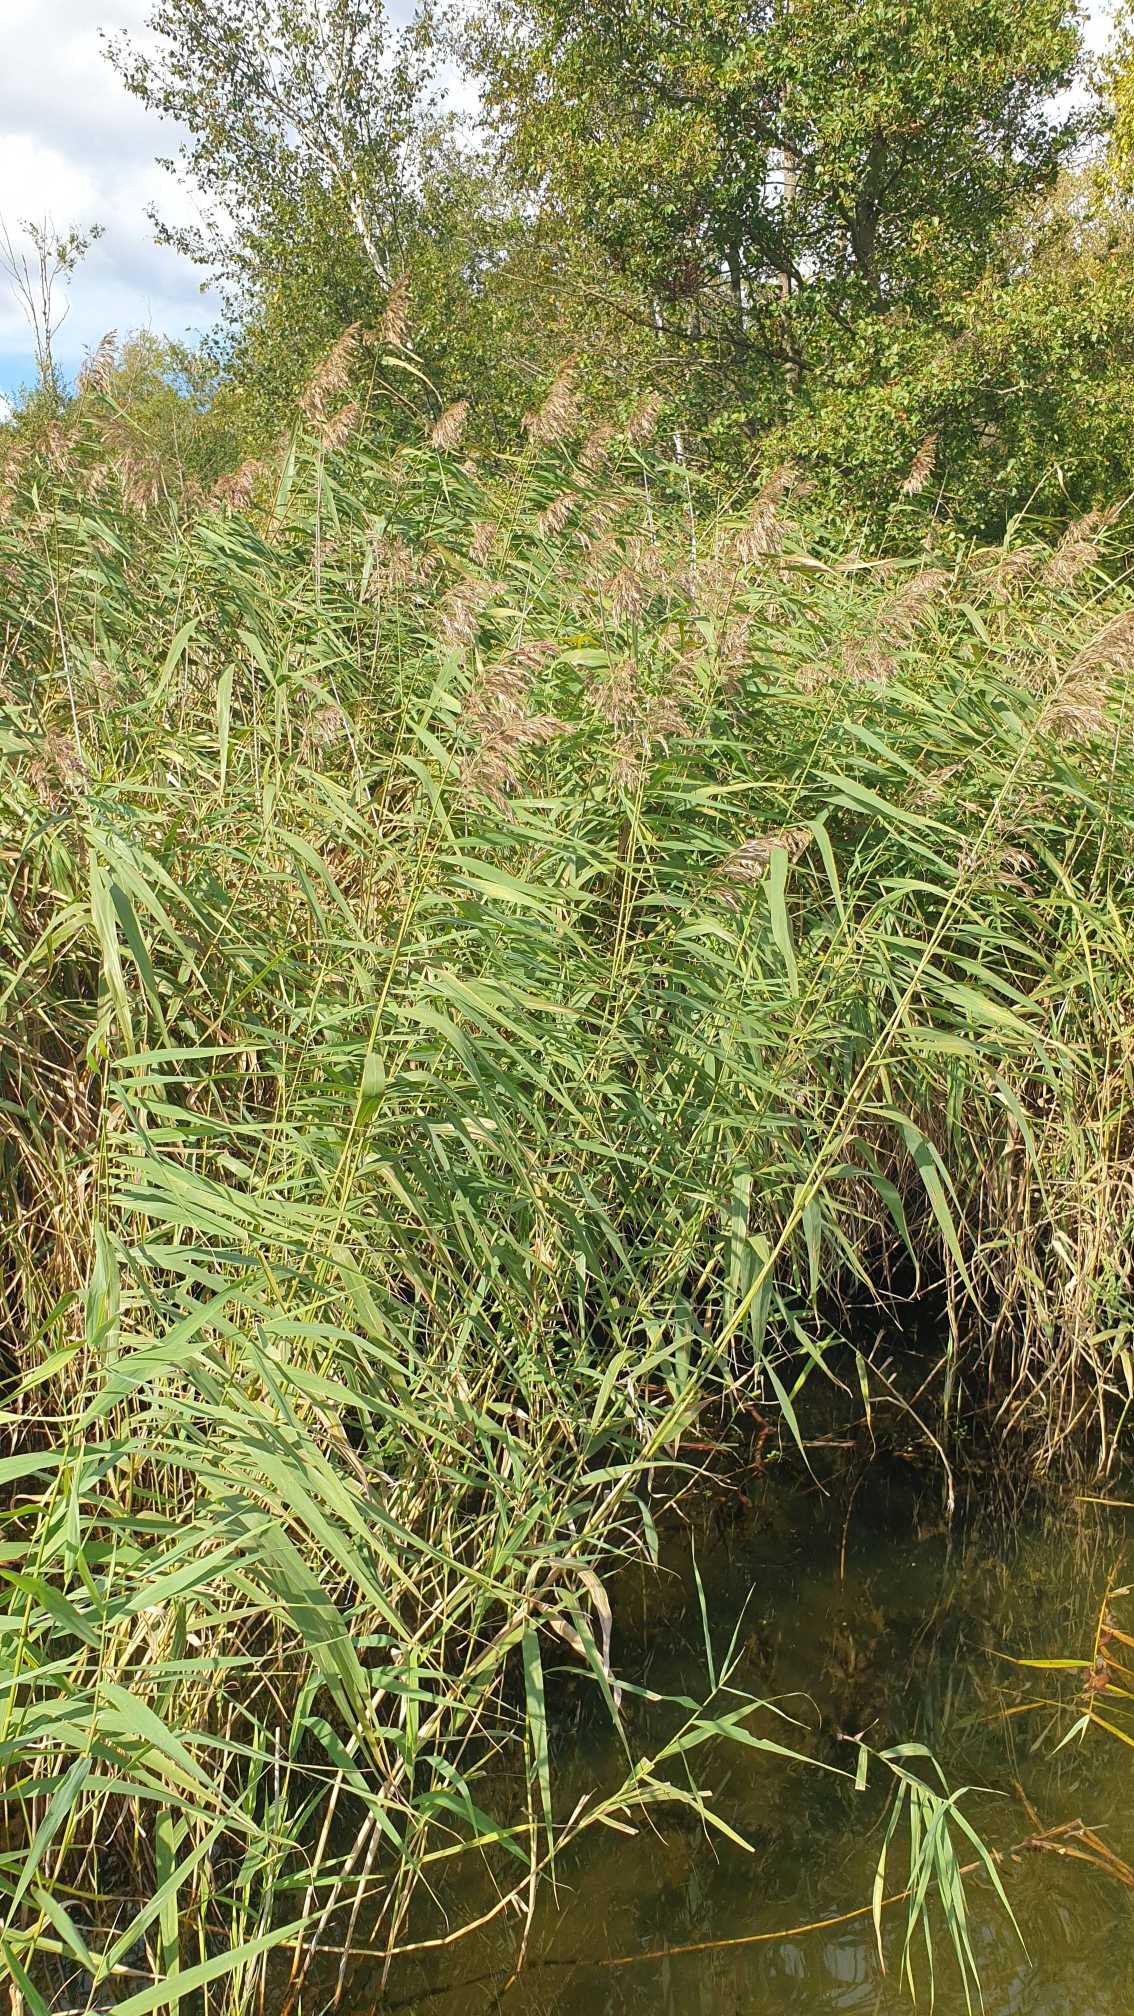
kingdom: Plantae
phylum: Tracheophyta
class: Liliopsida
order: Poales
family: Poaceae
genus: Phragmites
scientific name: Phragmites australis
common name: Tagrør
